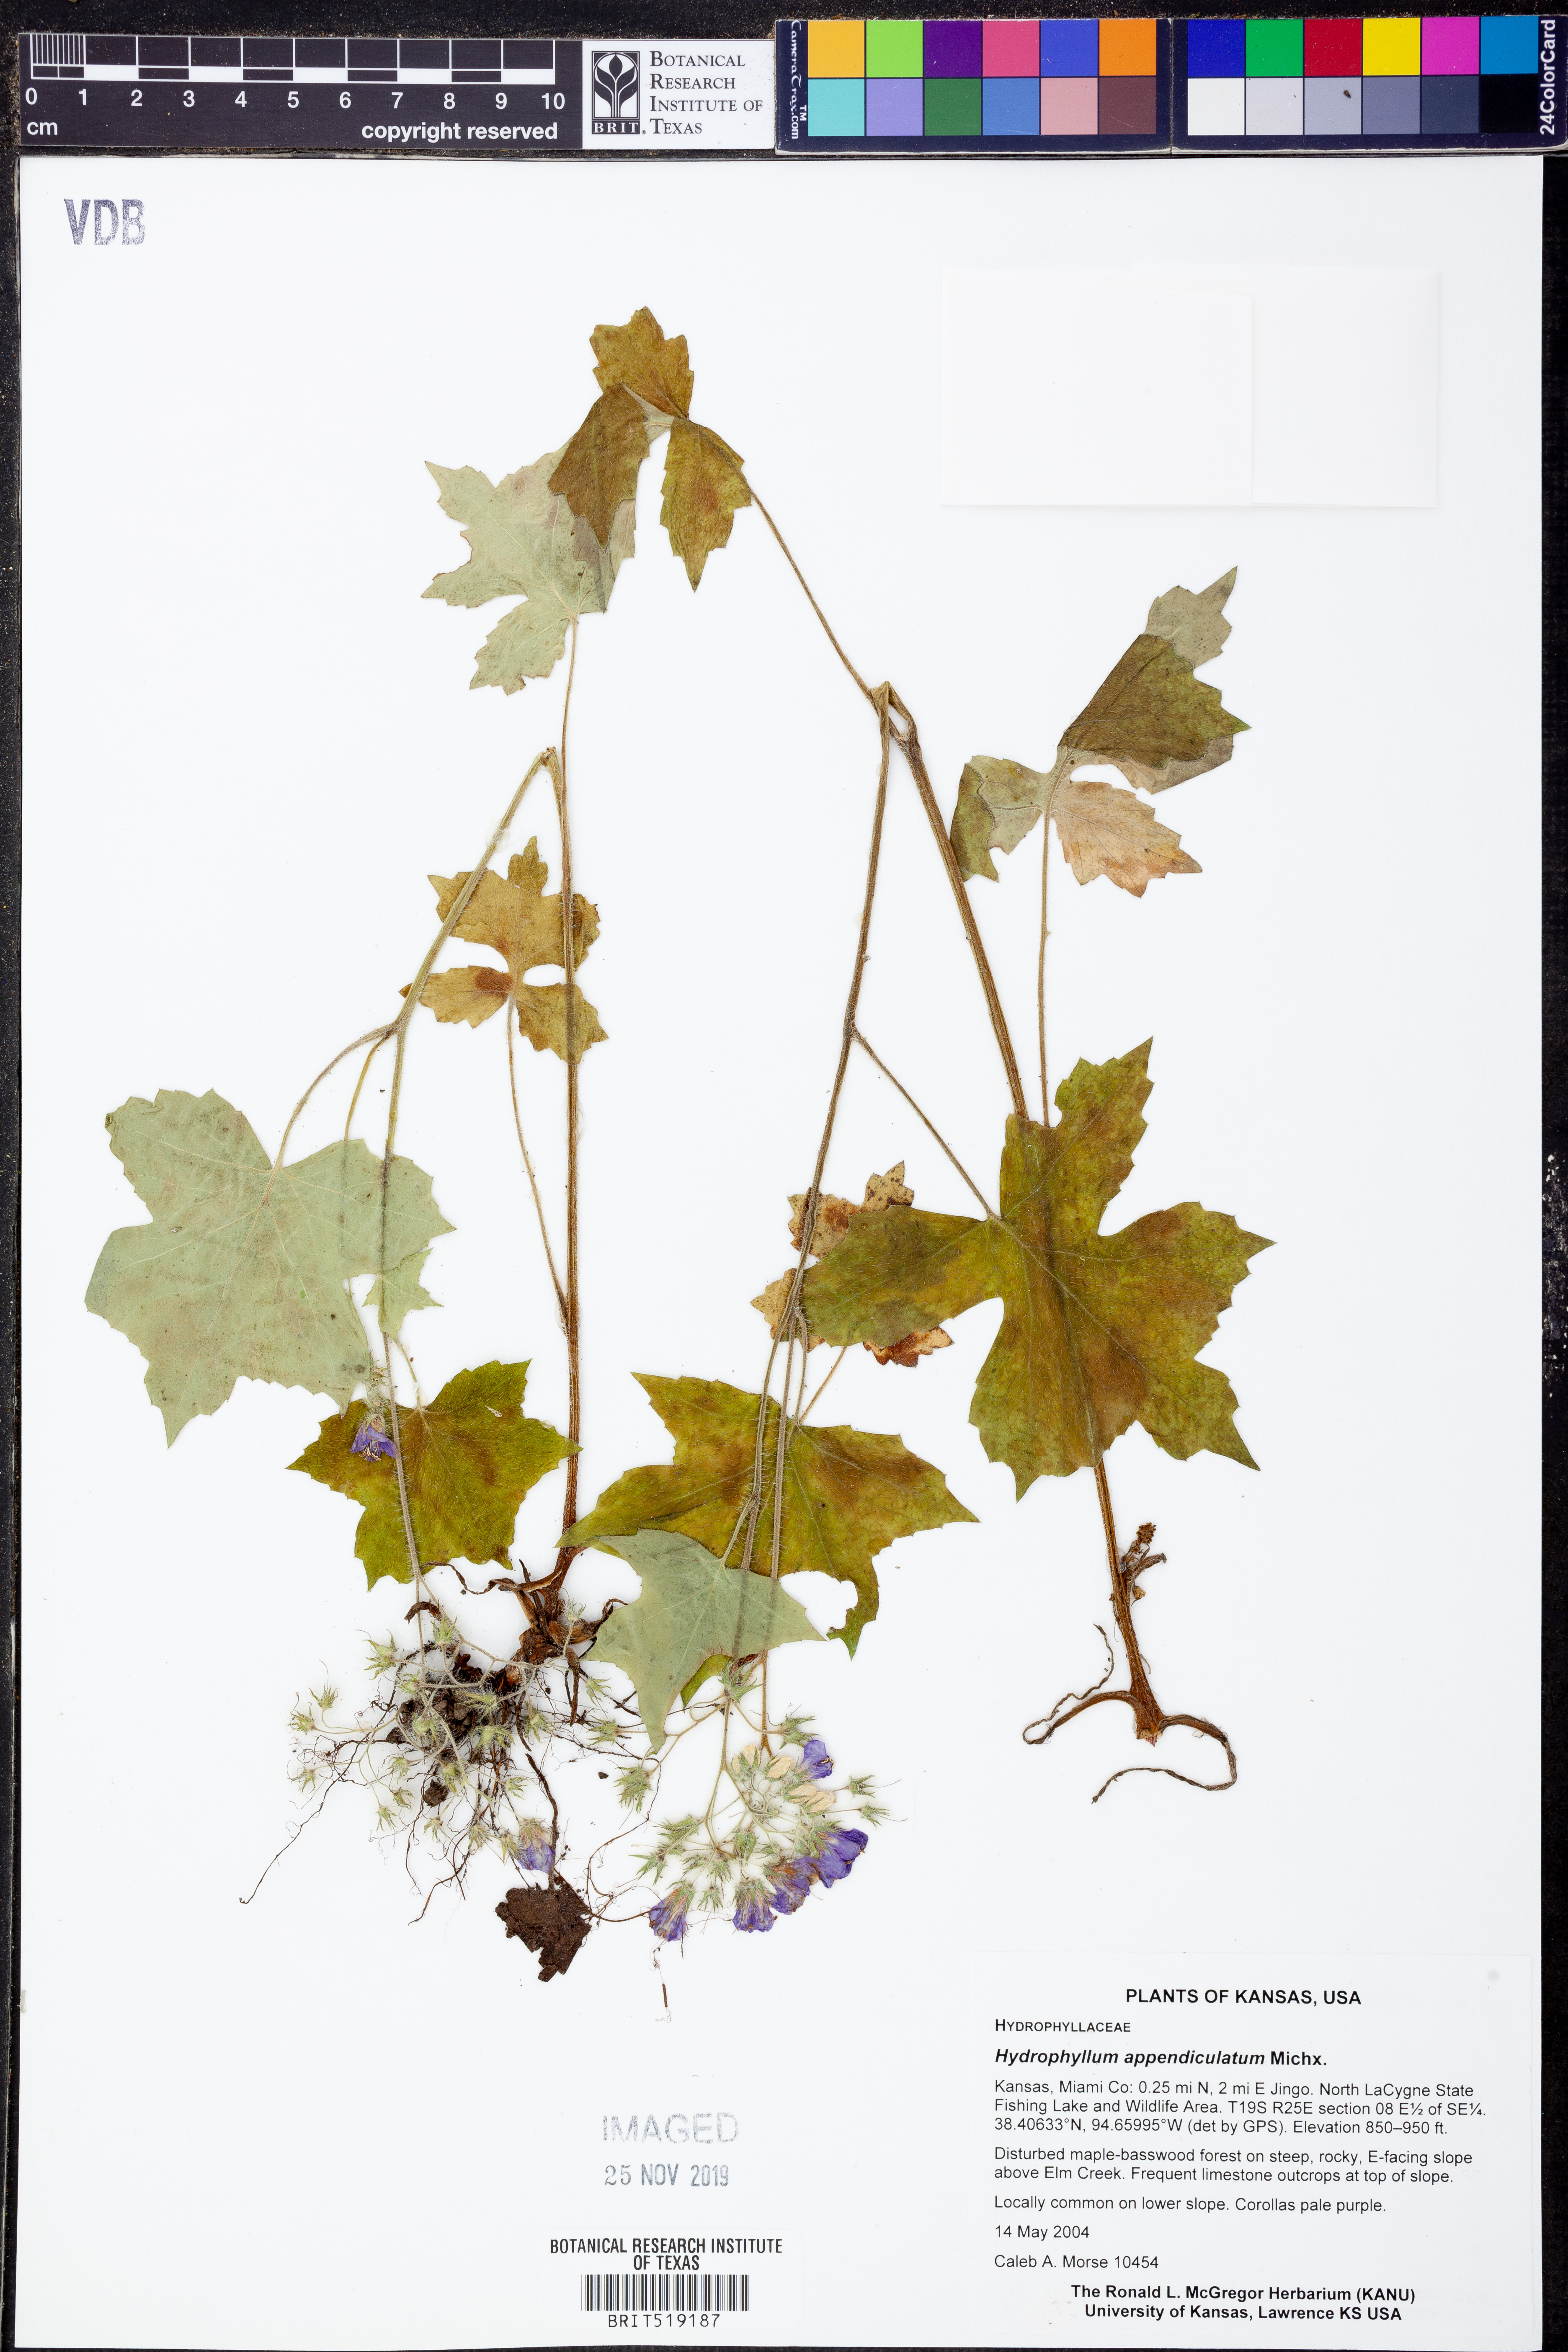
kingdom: Plantae
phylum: Tracheophyta
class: Magnoliopsida
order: Boraginales
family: Hydrophyllaceae
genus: Hydrophyllum
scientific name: Hydrophyllum appendiculatum
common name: Appendaged waterleaf
